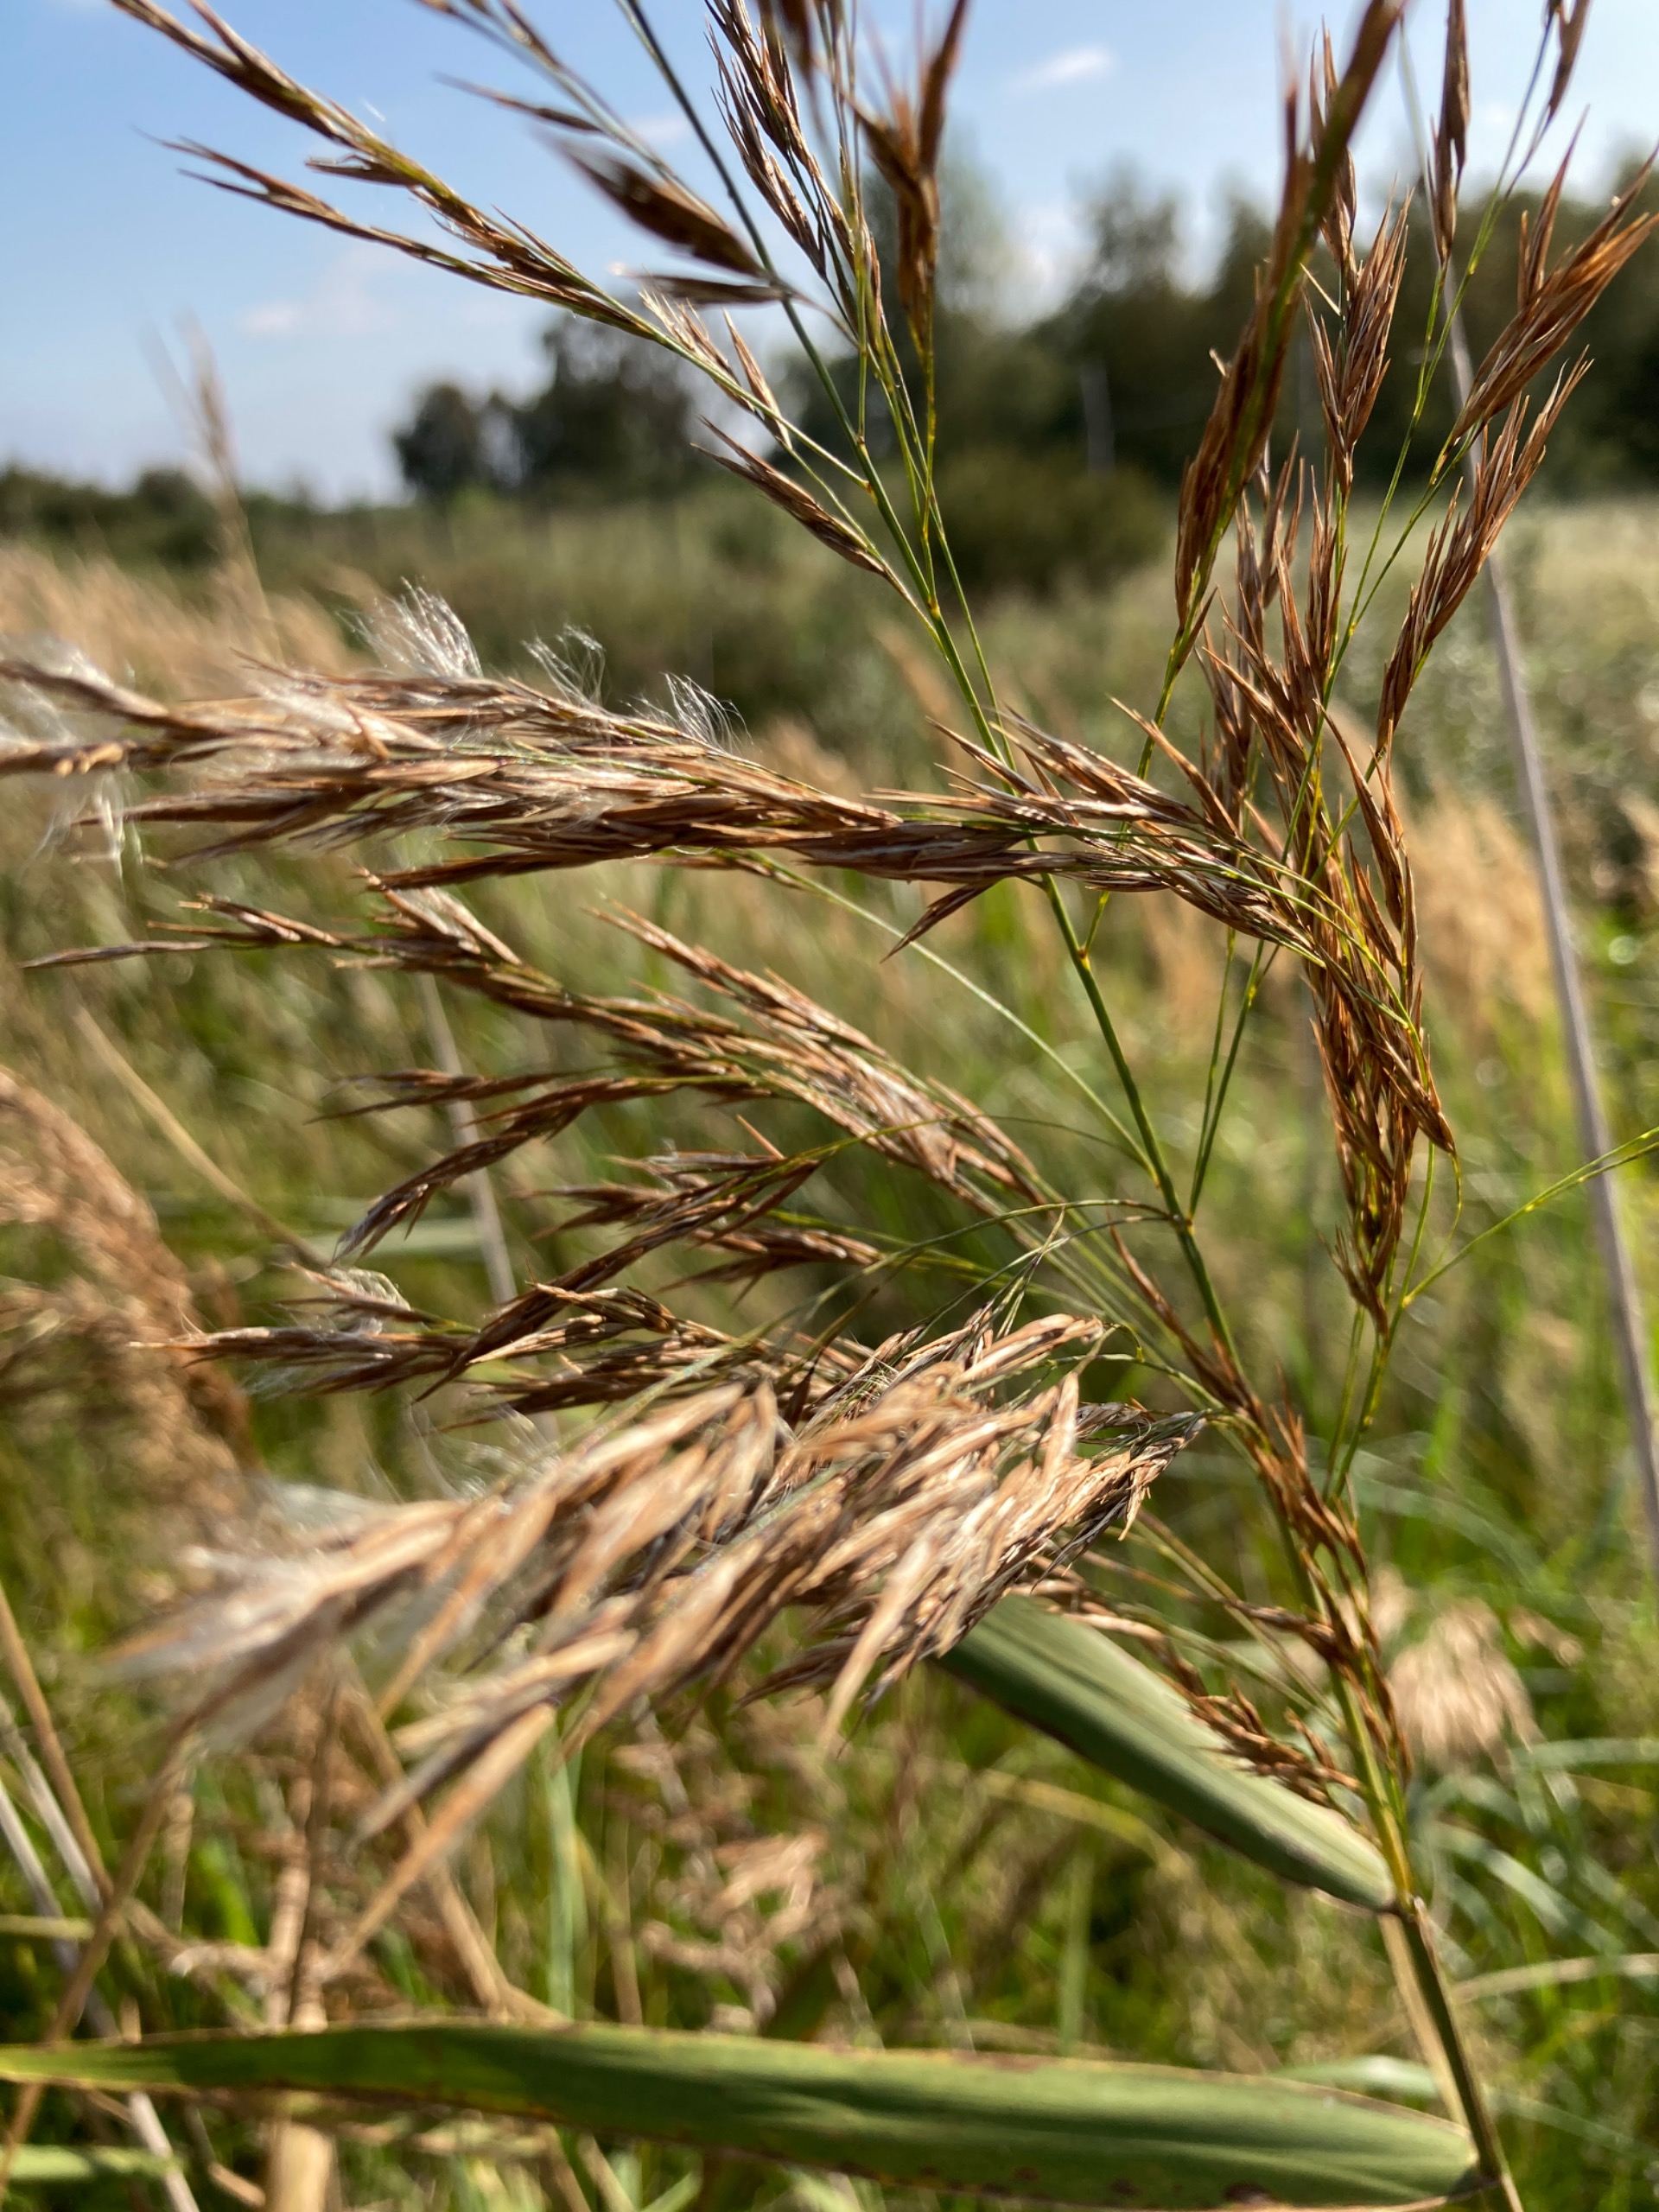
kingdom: Plantae
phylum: Tracheophyta
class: Liliopsida
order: Poales
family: Poaceae
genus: Phragmites
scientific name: Phragmites australis
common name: Tagrør
